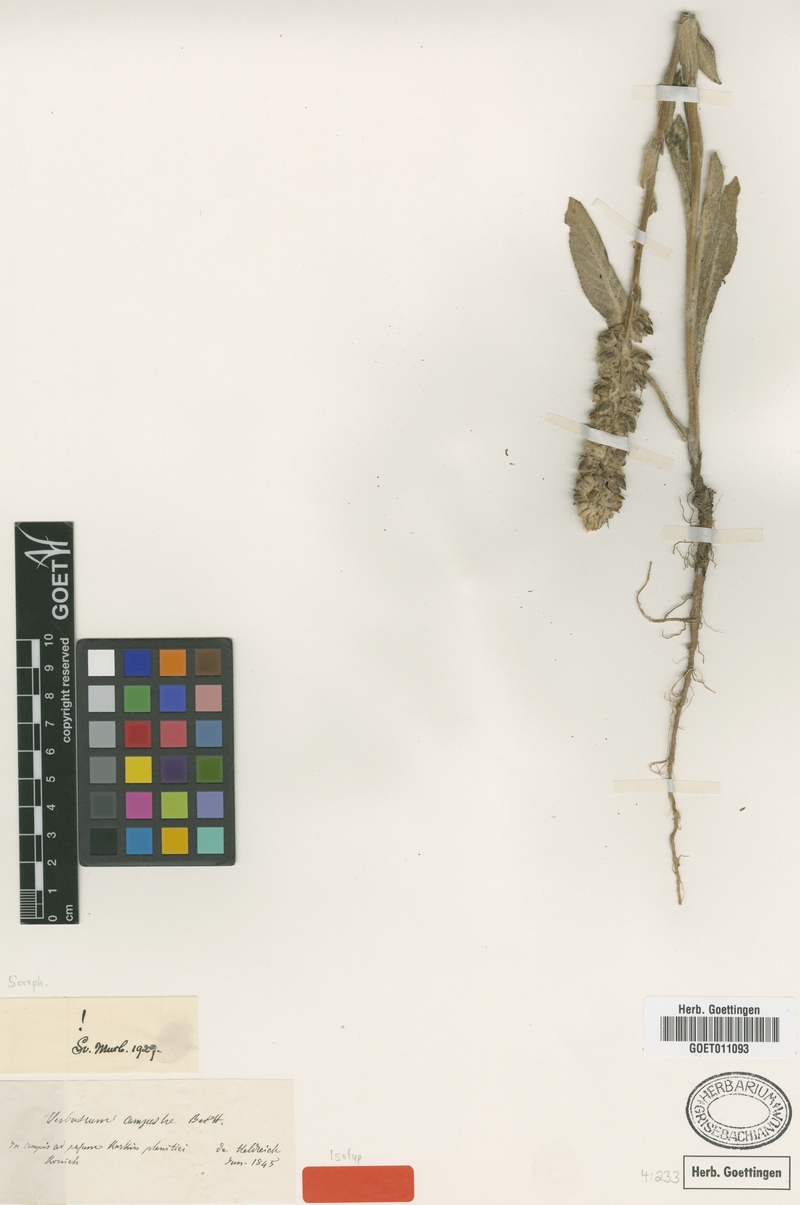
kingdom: Plantae
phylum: Tracheophyta
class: Magnoliopsida
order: Lamiales
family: Scrophulariaceae
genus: Verbascum
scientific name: Verbascum campestre
